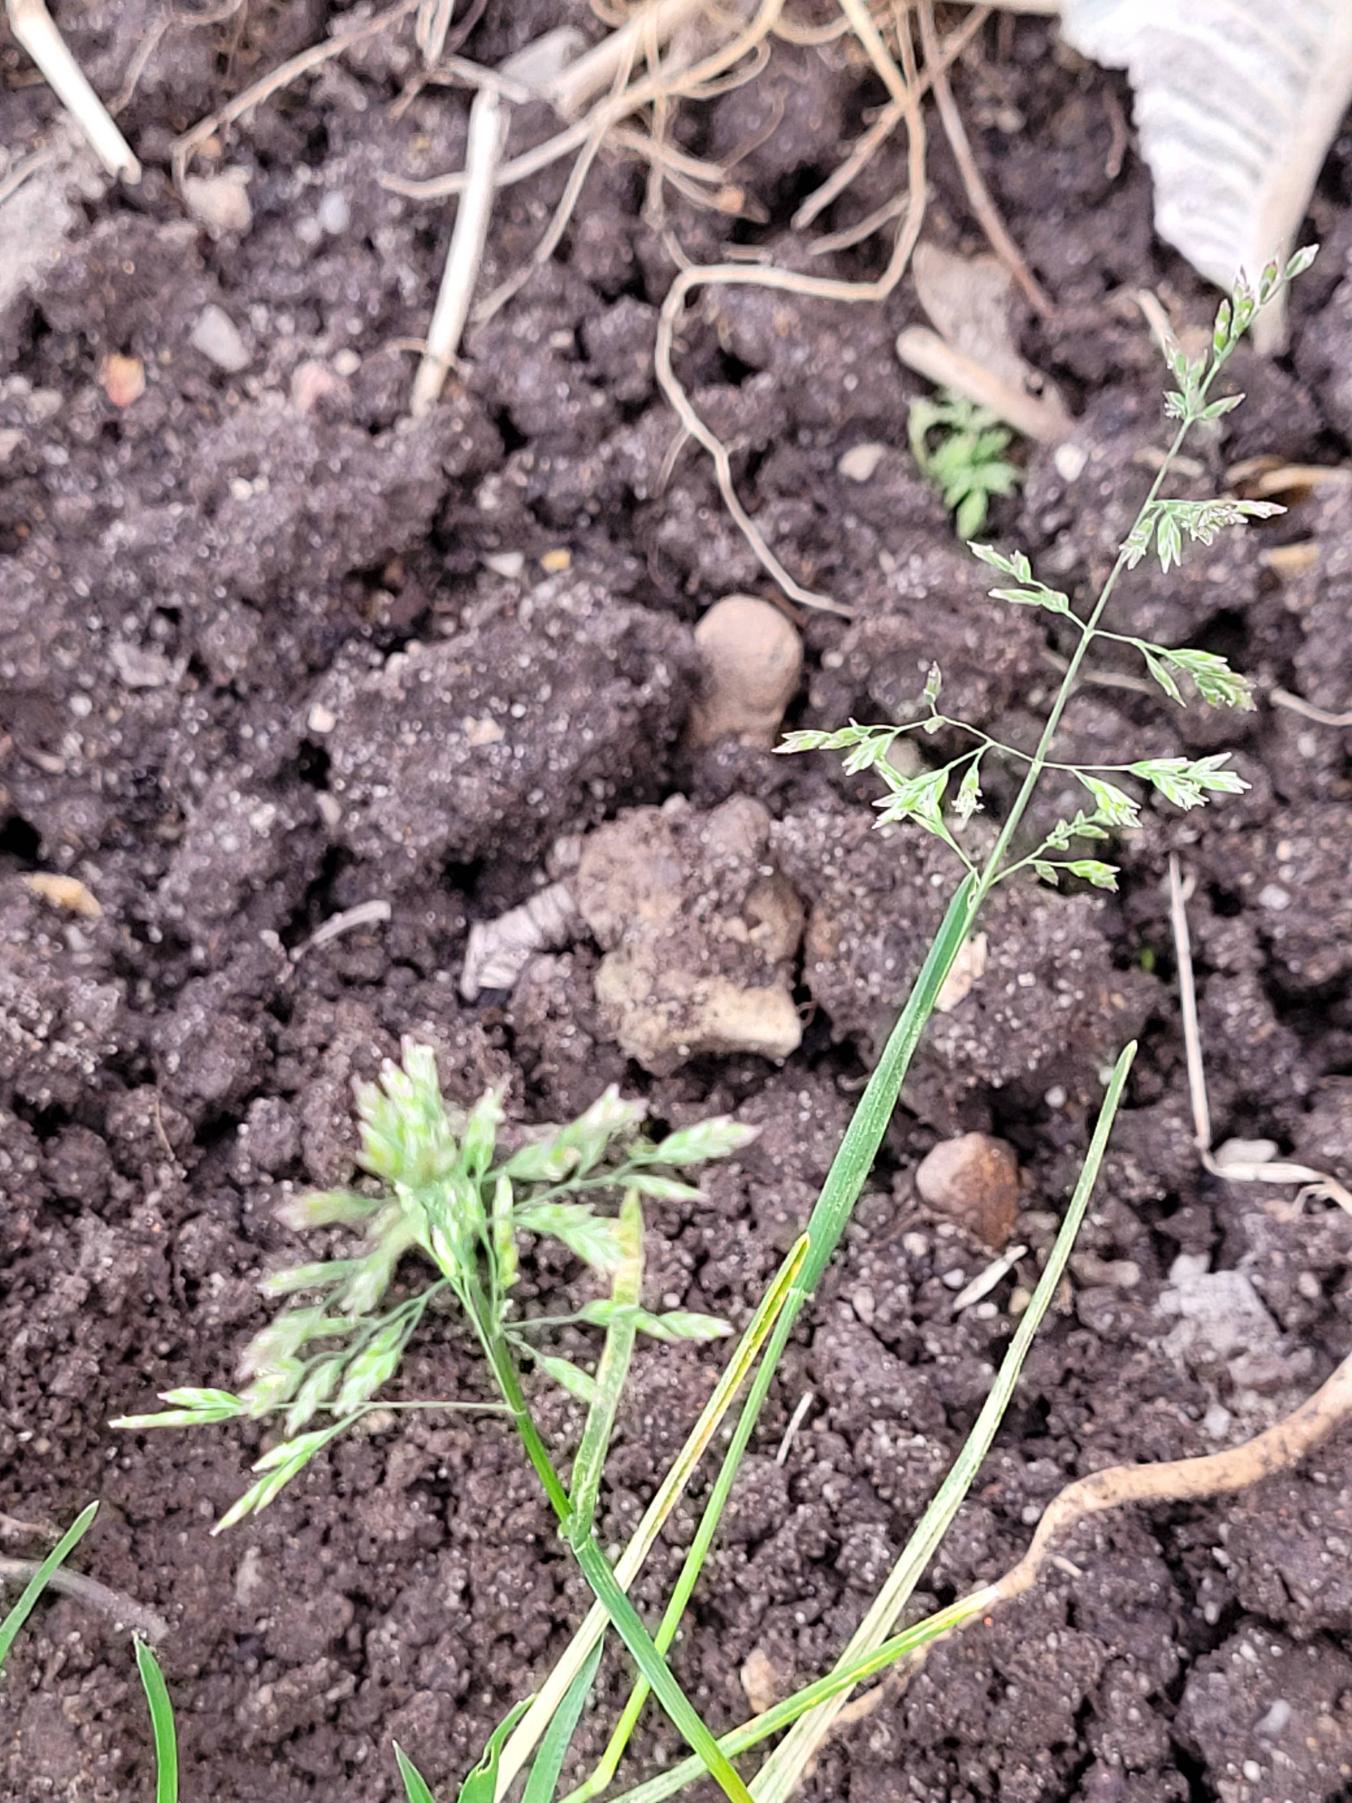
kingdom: Plantae
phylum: Tracheophyta
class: Liliopsida
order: Poales
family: Poaceae
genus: Poa
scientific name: Poa annua
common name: Enårig rapgræs
